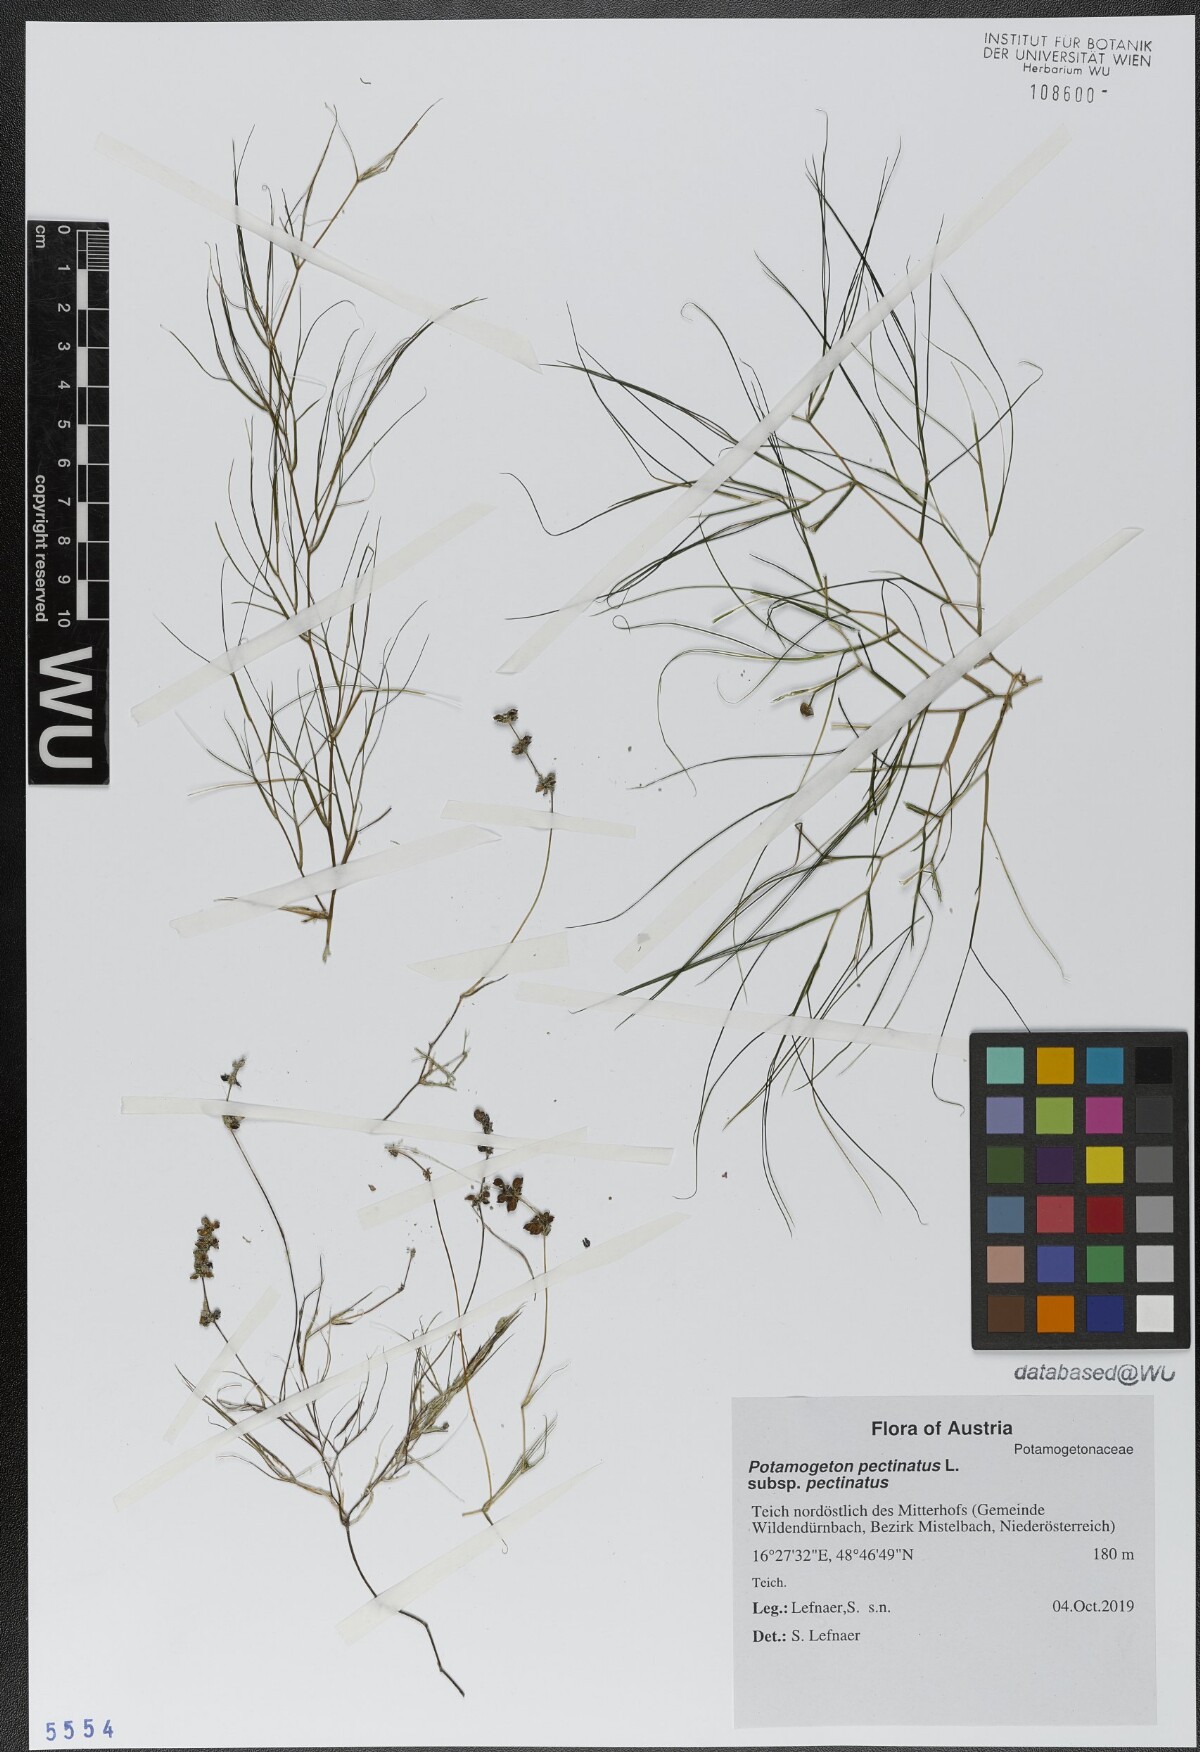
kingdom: Plantae
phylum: Tracheophyta
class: Liliopsida
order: Alismatales
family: Potamogetonaceae
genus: Stuckenia
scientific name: Stuckenia pectinata
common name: Sago pondweed
